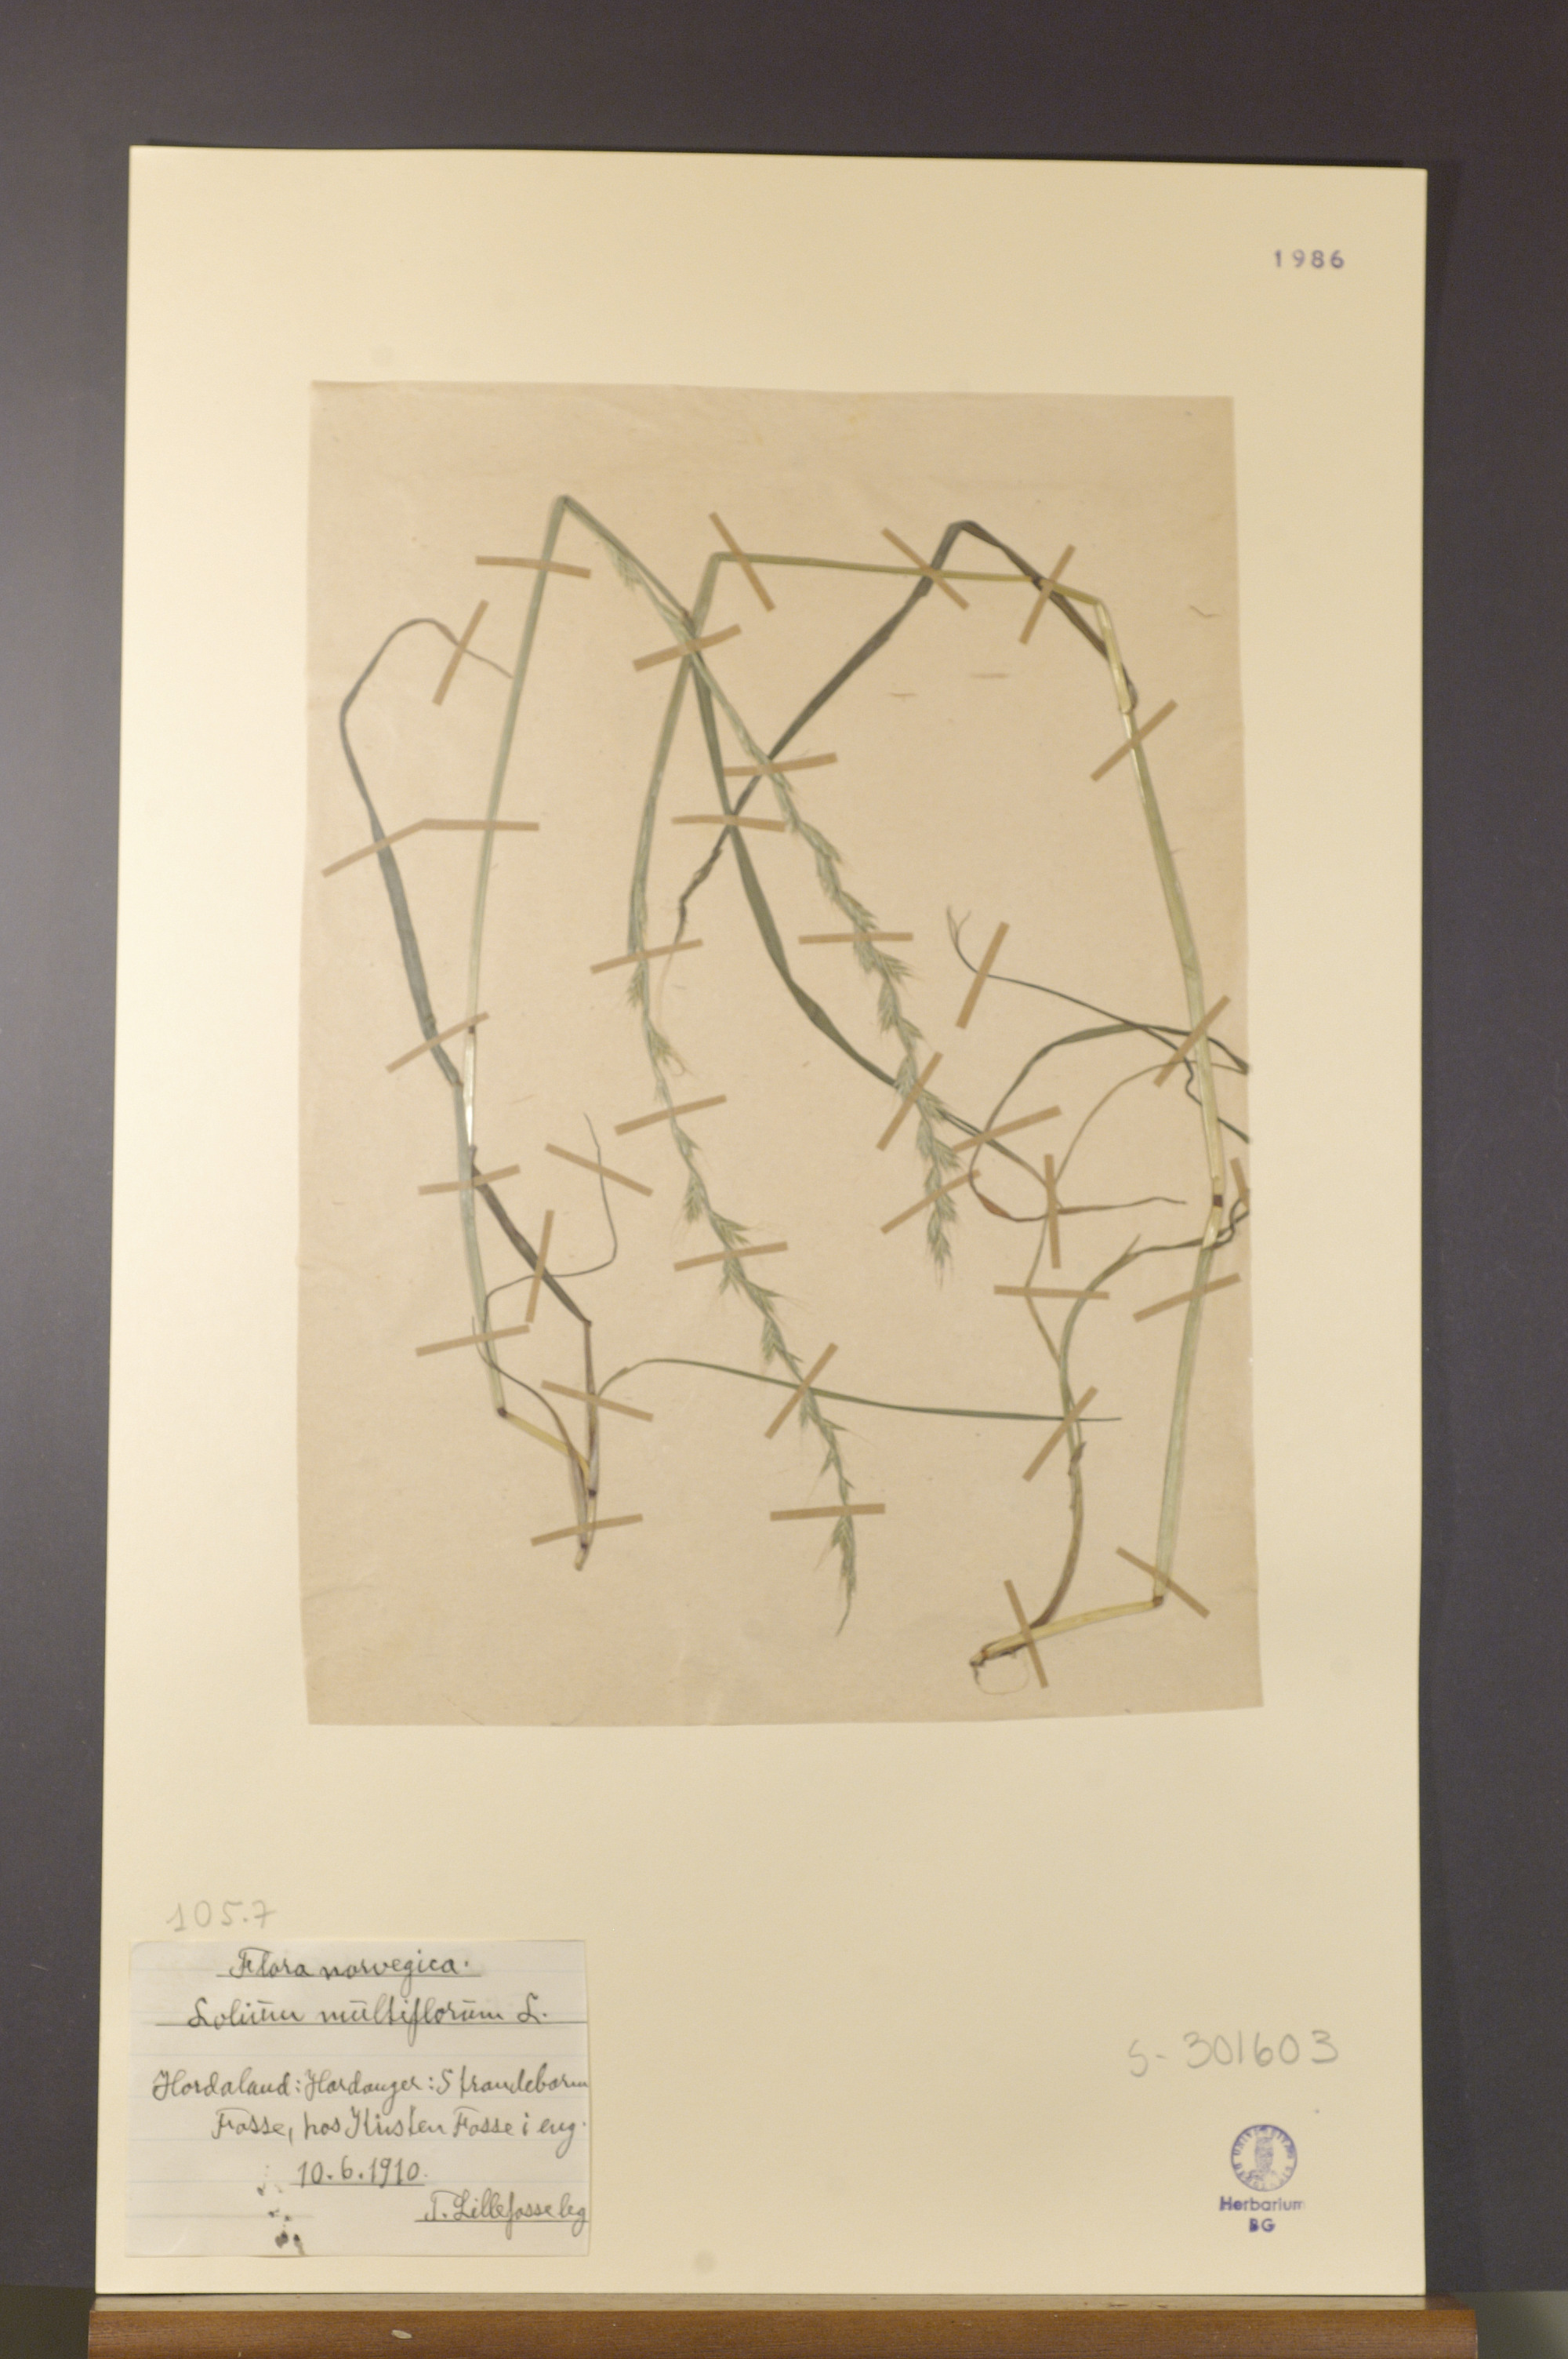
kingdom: Plantae
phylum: Tracheophyta
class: Liliopsida
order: Poales
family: Poaceae
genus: Lolium
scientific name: Lolium multiflorum
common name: Annual ryegrass
